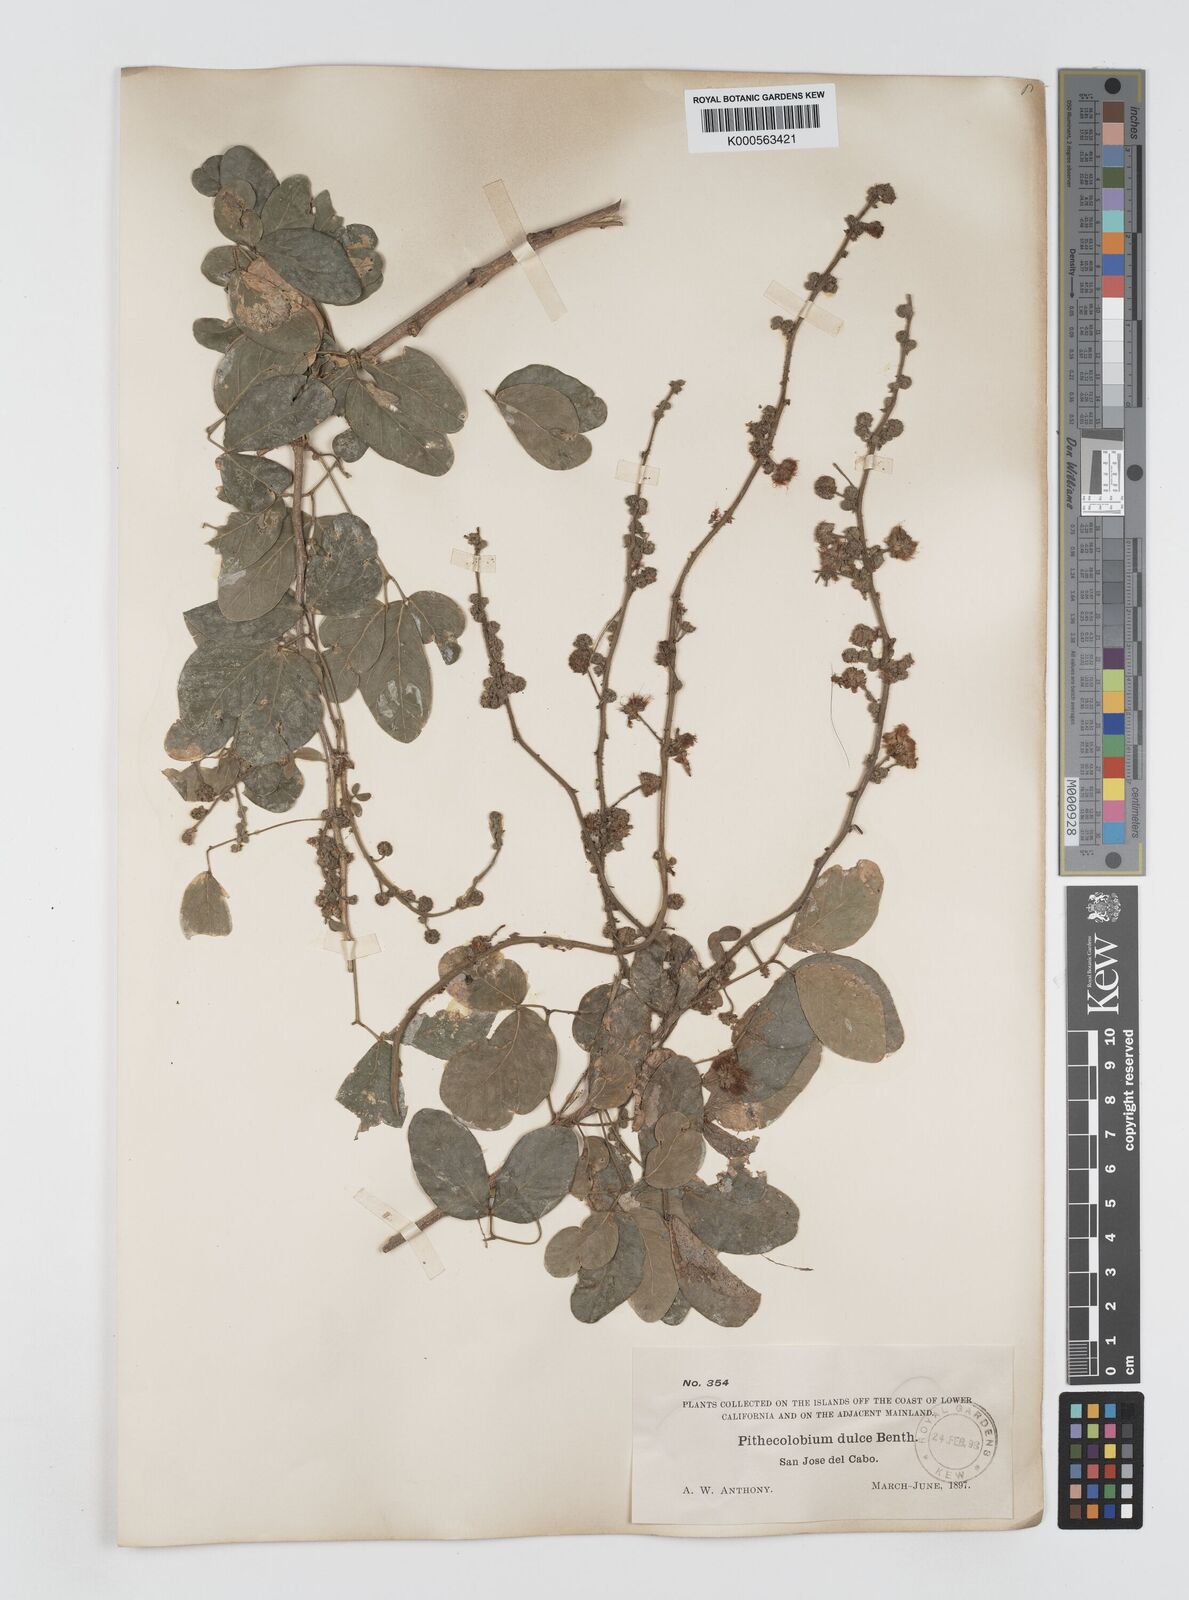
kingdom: Plantae
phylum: Tracheophyta
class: Magnoliopsida
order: Fabales
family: Fabaceae
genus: Pithecellobium
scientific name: Pithecellobium dulce
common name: Monkeypod
